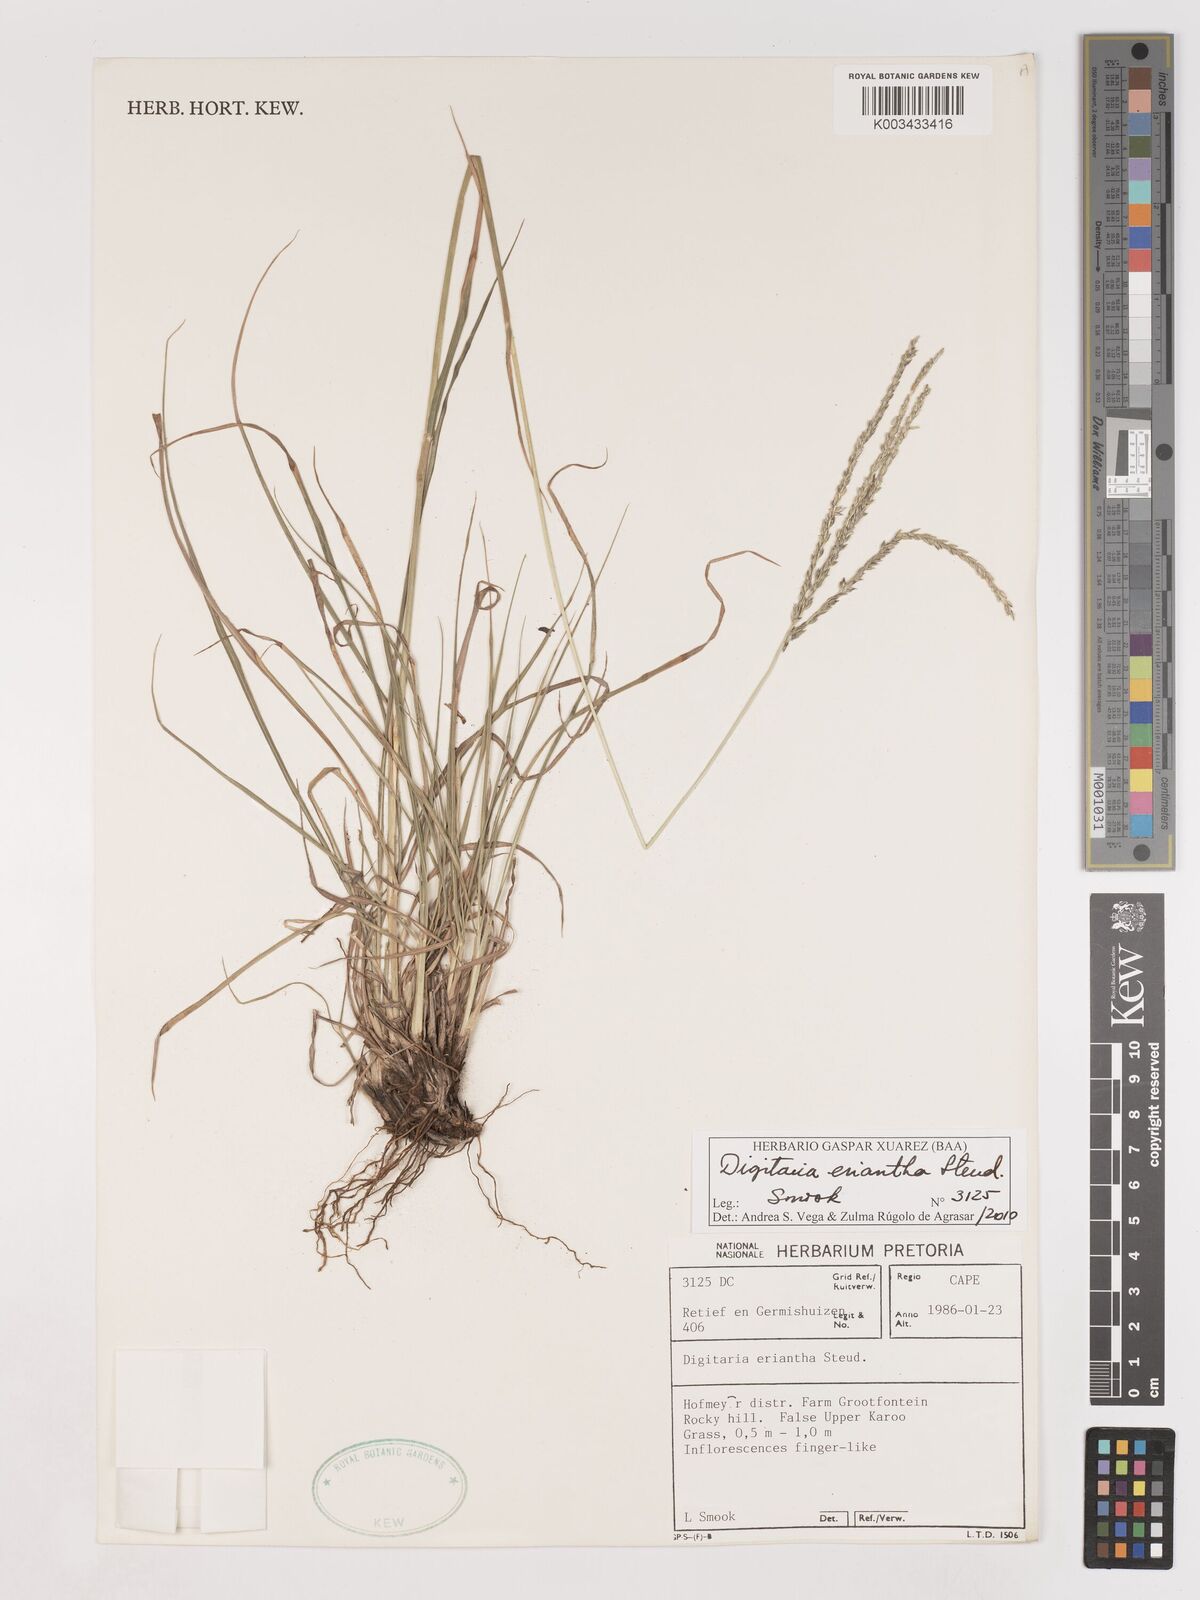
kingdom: Plantae
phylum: Tracheophyta
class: Liliopsida
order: Poales
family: Poaceae
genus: Digitaria
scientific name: Digitaria eriantha
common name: Digitgrass
